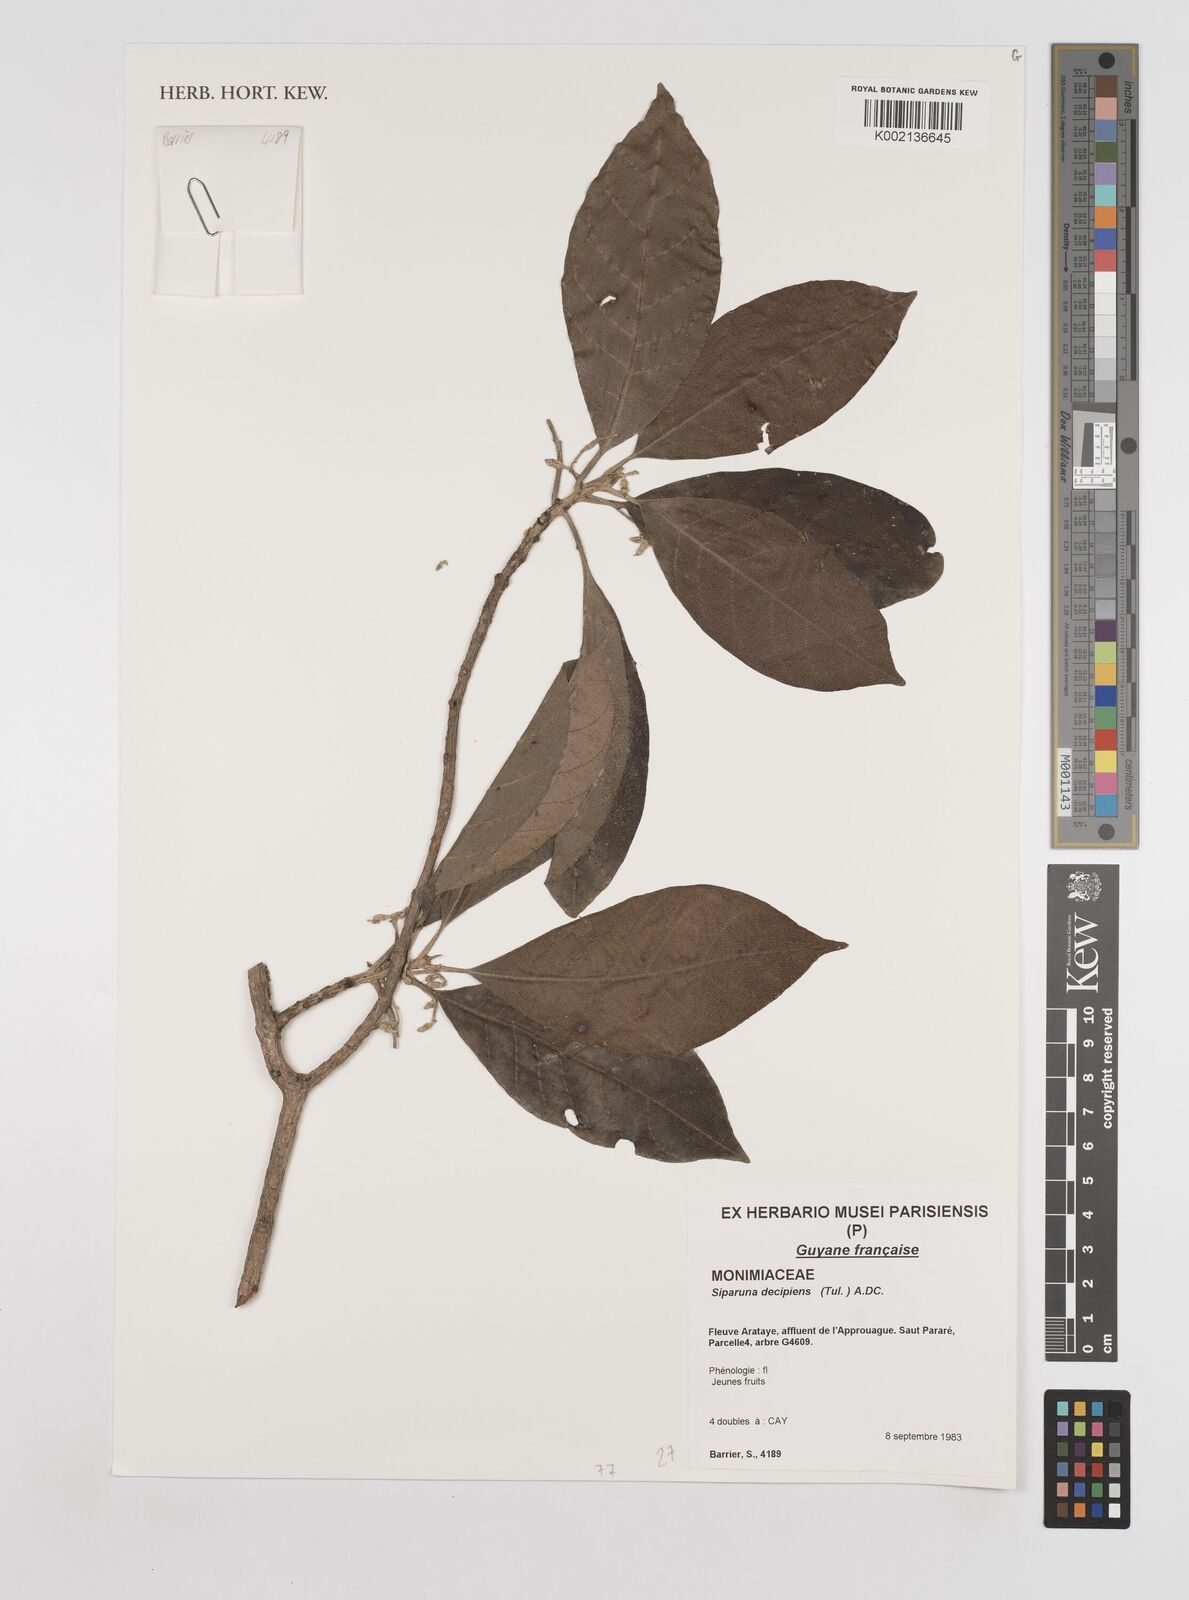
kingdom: Plantae
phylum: Tracheophyta
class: Magnoliopsida
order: Laurales
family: Siparunaceae
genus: Siparuna
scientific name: Siparuna decipiens
